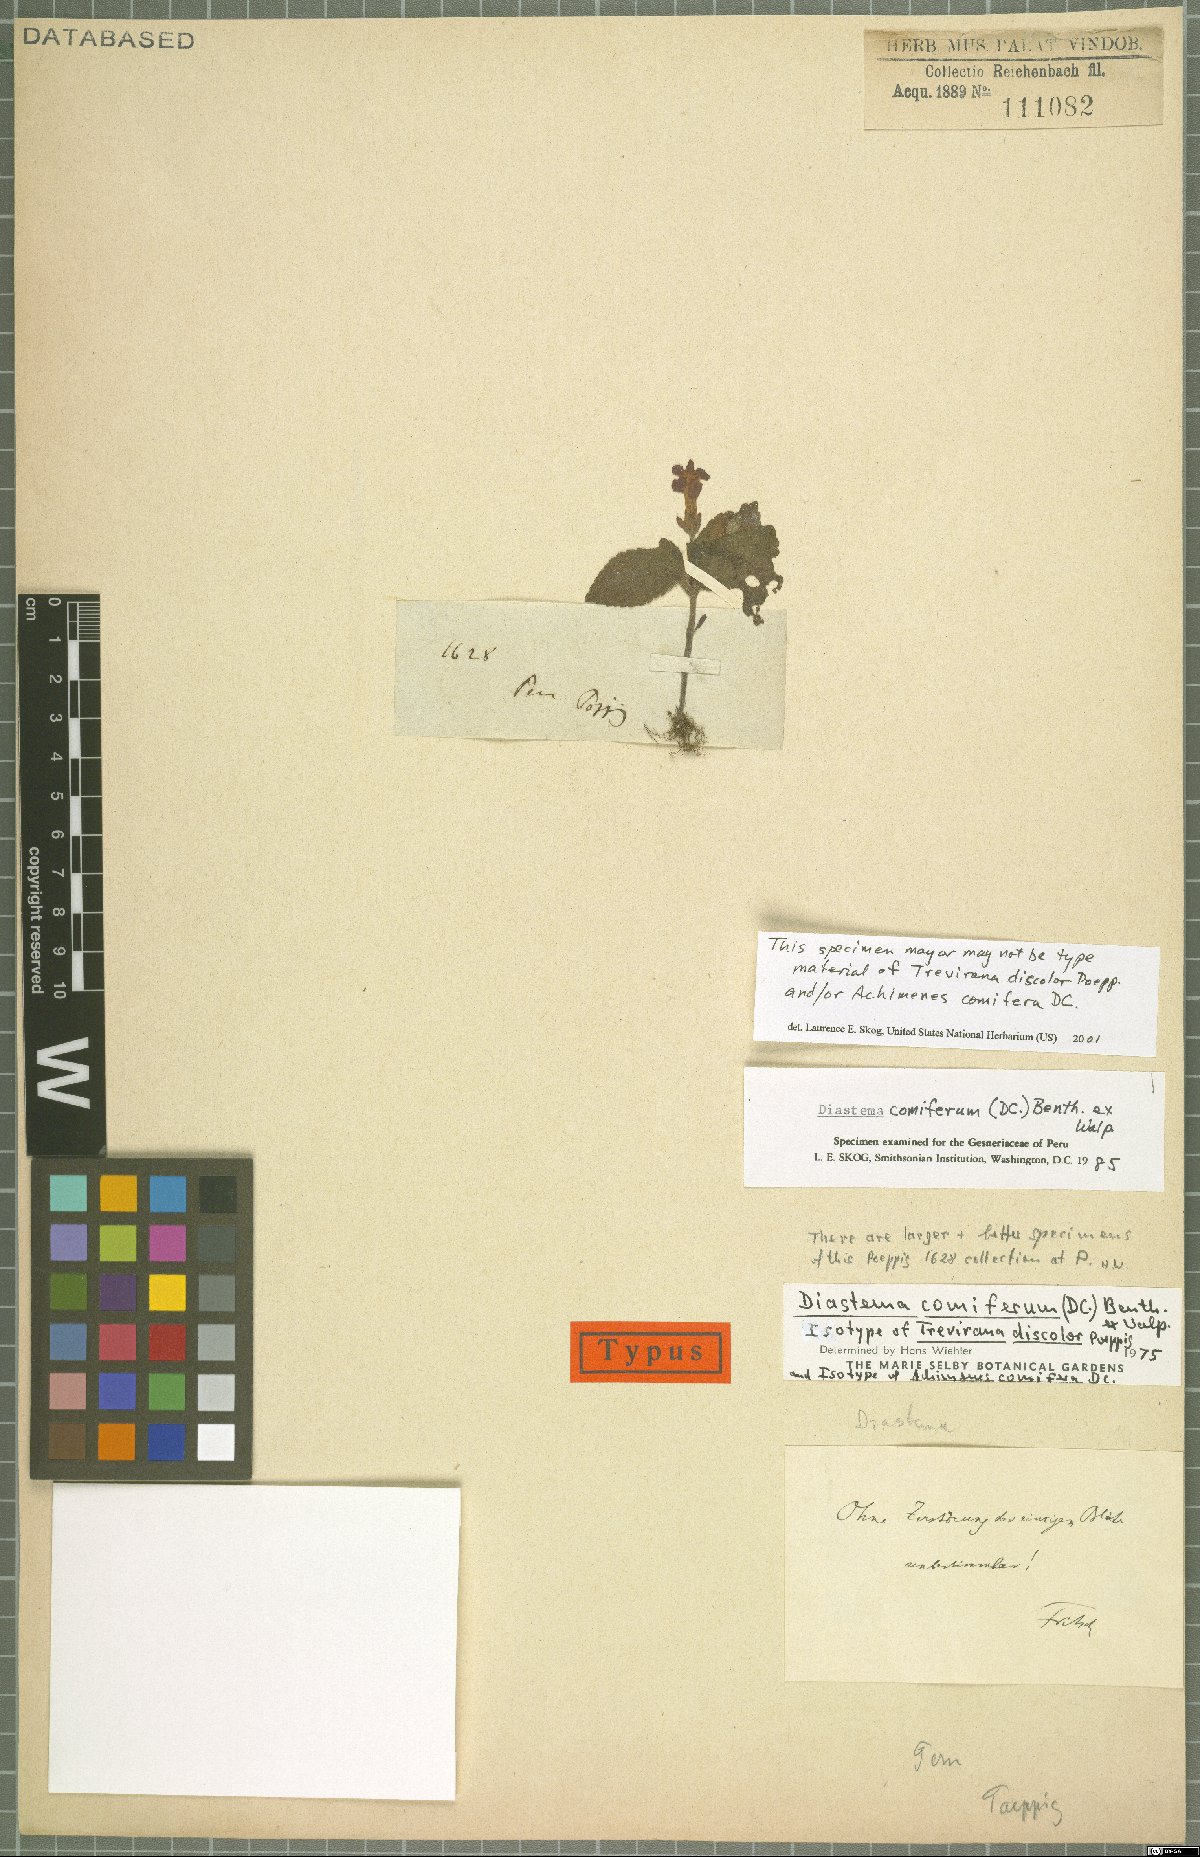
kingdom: Plantae
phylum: Tracheophyta
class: Magnoliopsida
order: Lamiales
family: Gesneriaceae
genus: Diastema
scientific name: Diastema comiferum
